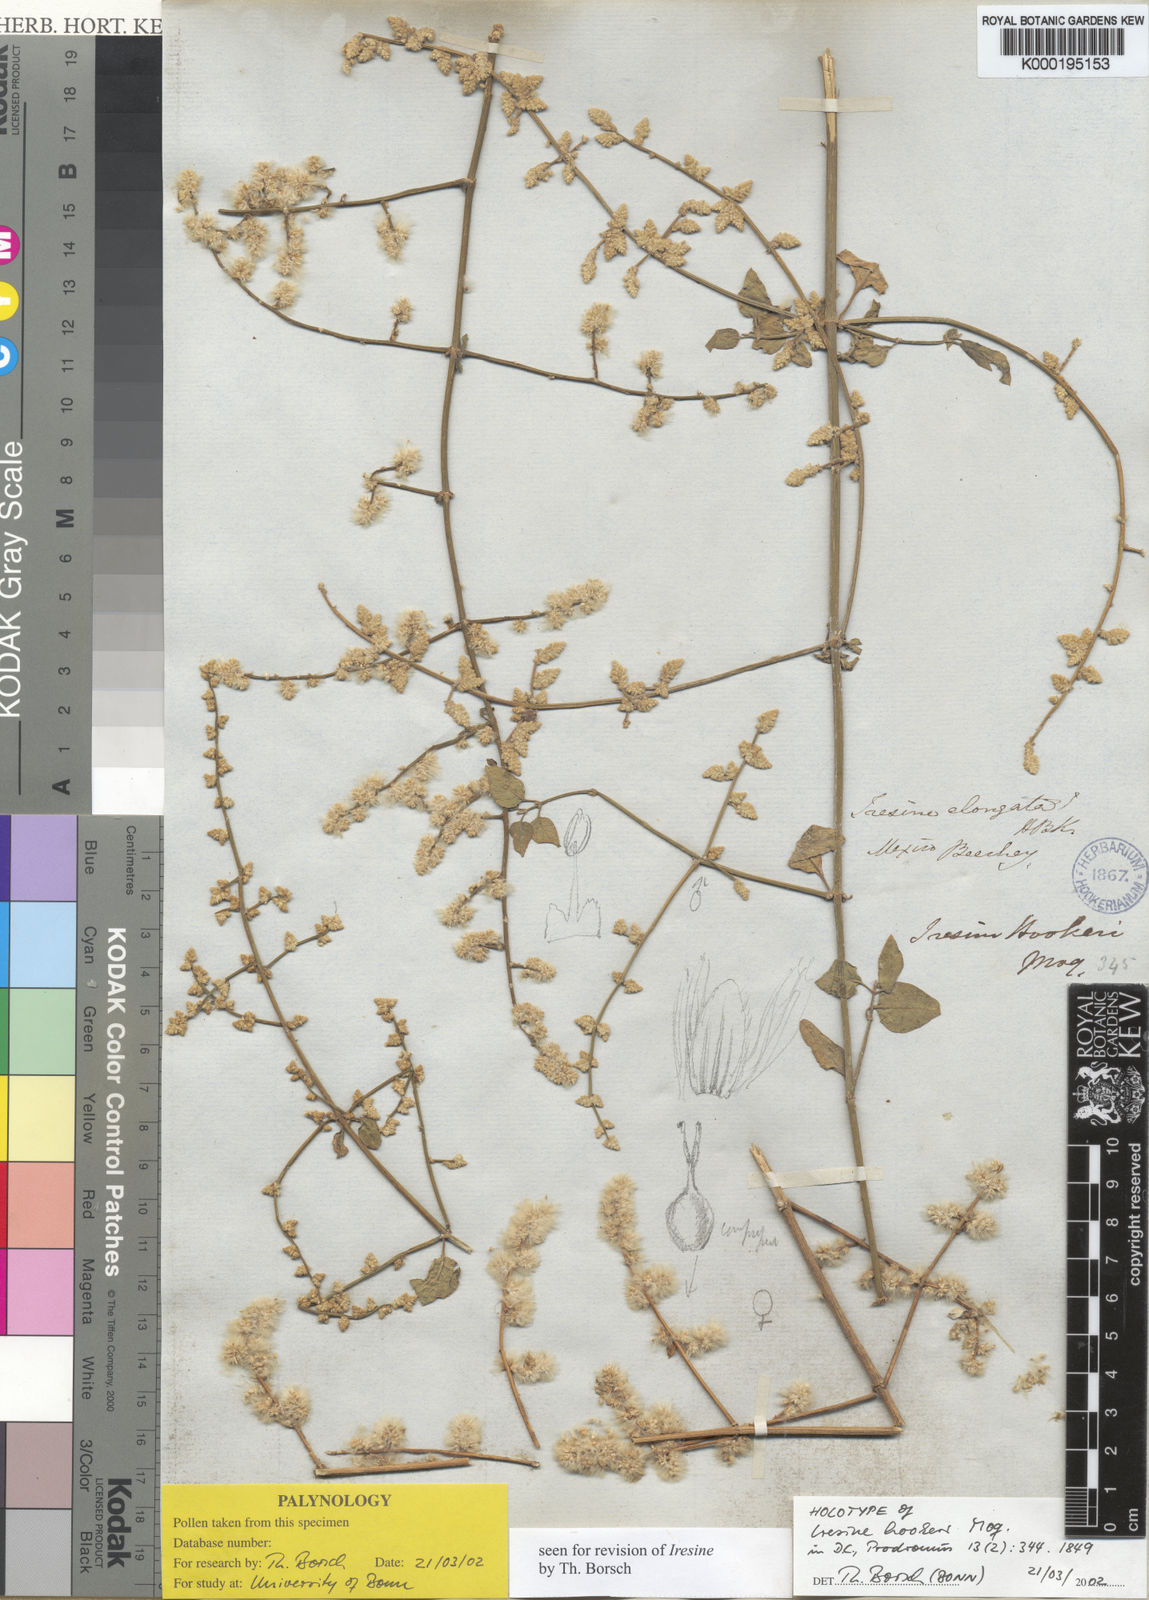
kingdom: Plantae
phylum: Tracheophyta
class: Magnoliopsida
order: Caryophyllales
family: Amaranthaceae
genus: Iresine
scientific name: Iresine rhizomatosa
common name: Juda's-bush
